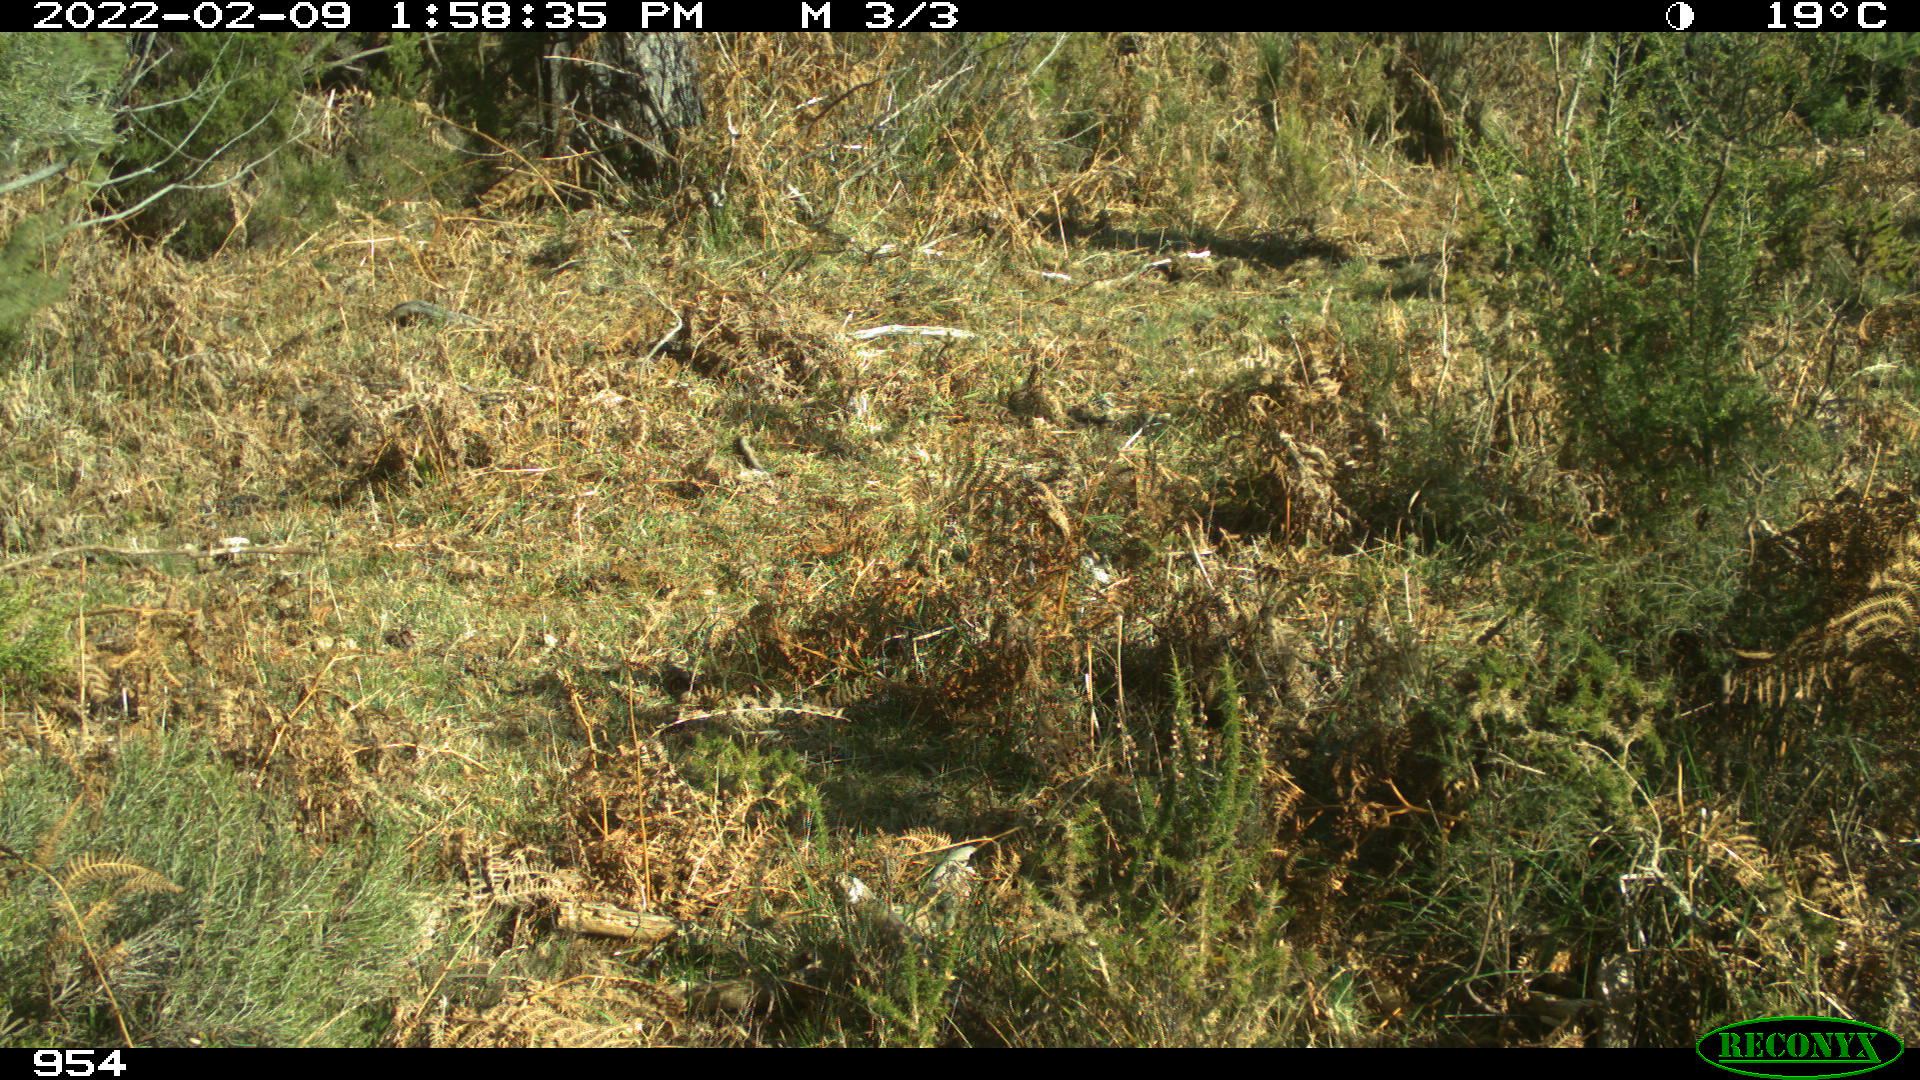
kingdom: Animalia
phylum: Chordata
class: Mammalia
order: Artiodactyla
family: Bovidae
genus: Bos
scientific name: Bos taurus
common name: Domesticated cattle
